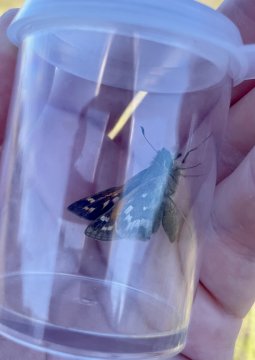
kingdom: Animalia
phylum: Arthropoda
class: Insecta
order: Lepidoptera
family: Hesperiidae
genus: Atalopedes
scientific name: Atalopedes campestris
